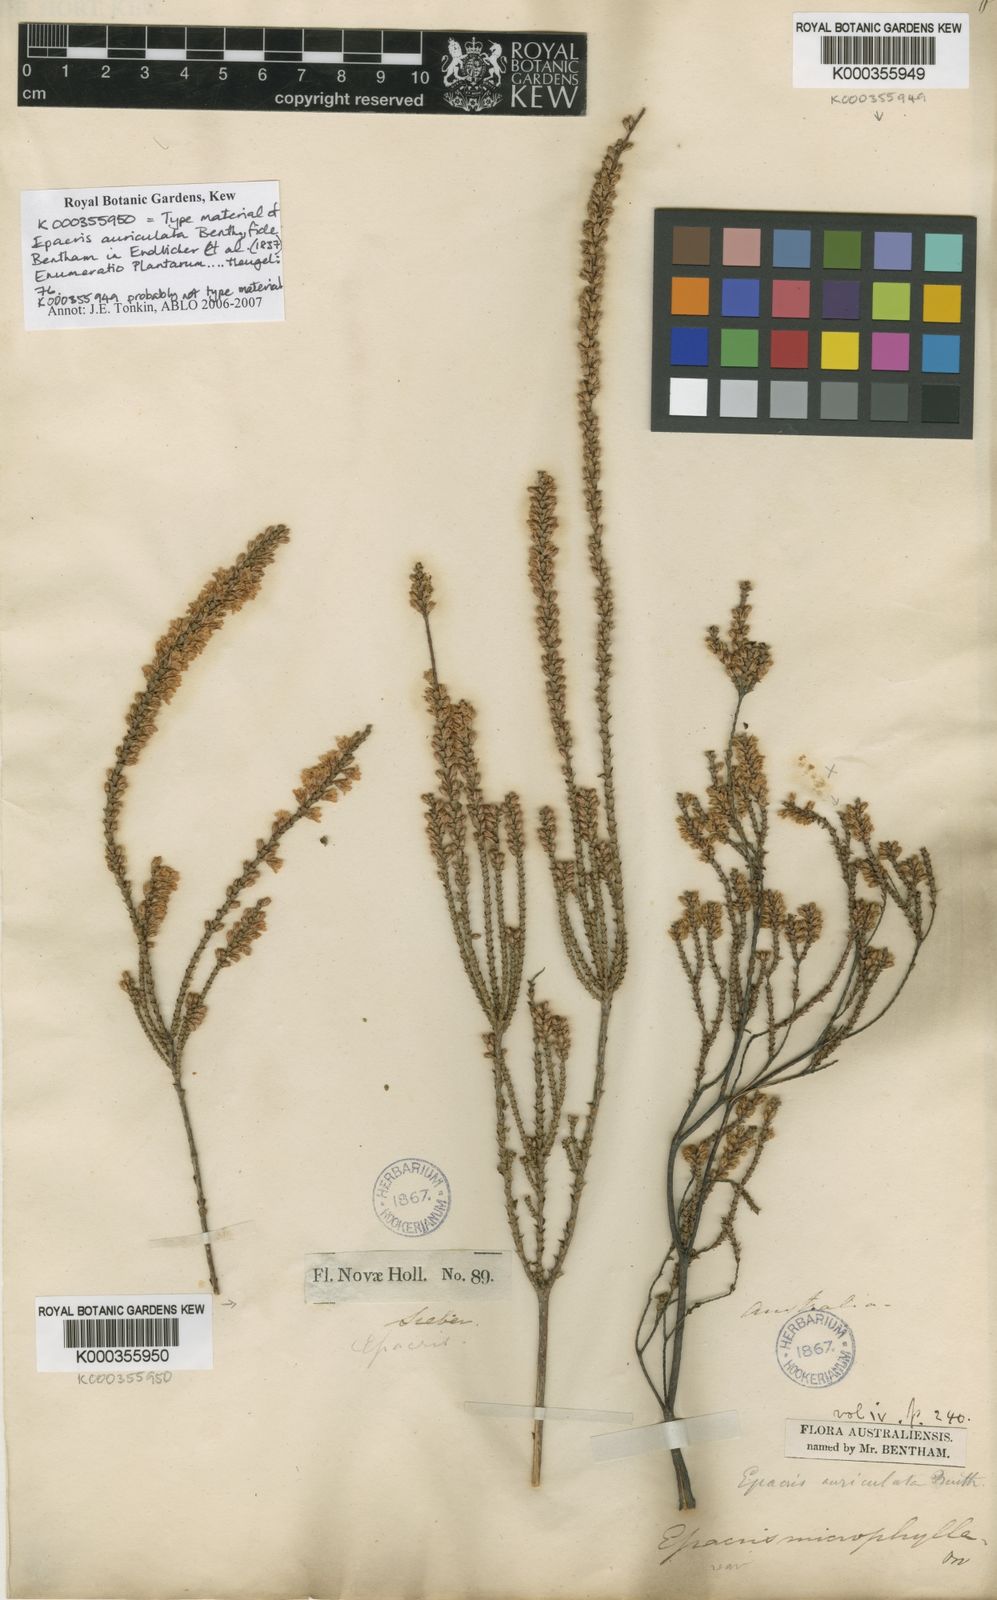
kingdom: Plantae
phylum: Tracheophyta
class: Magnoliopsida
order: Ericales
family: Ericaceae
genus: Epacris
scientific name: Epacris microphylla
